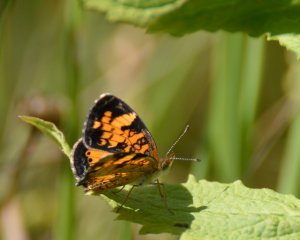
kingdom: Animalia
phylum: Arthropoda
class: Insecta
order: Lepidoptera
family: Nymphalidae
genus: Phyciodes
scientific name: Phyciodes tharos
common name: Northern Crescent
